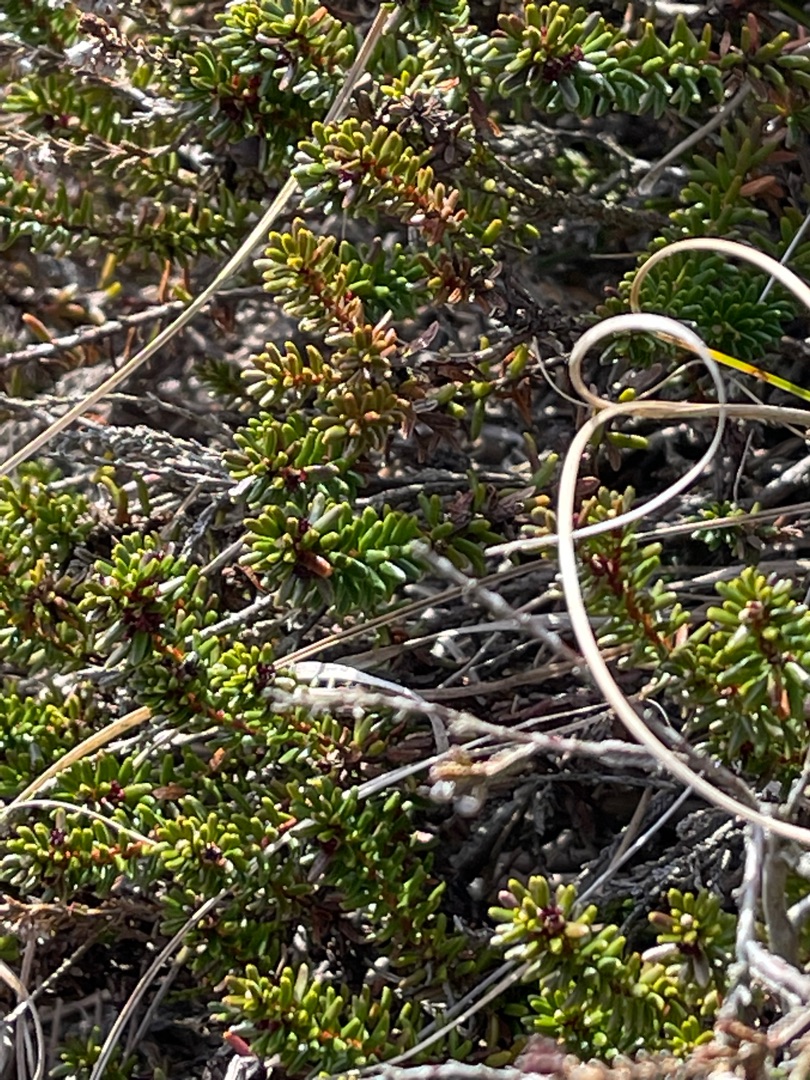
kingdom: Plantae
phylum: Tracheophyta
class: Magnoliopsida
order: Ericales
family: Ericaceae
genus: Empetrum
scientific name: Empetrum nigrum
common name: Revling
